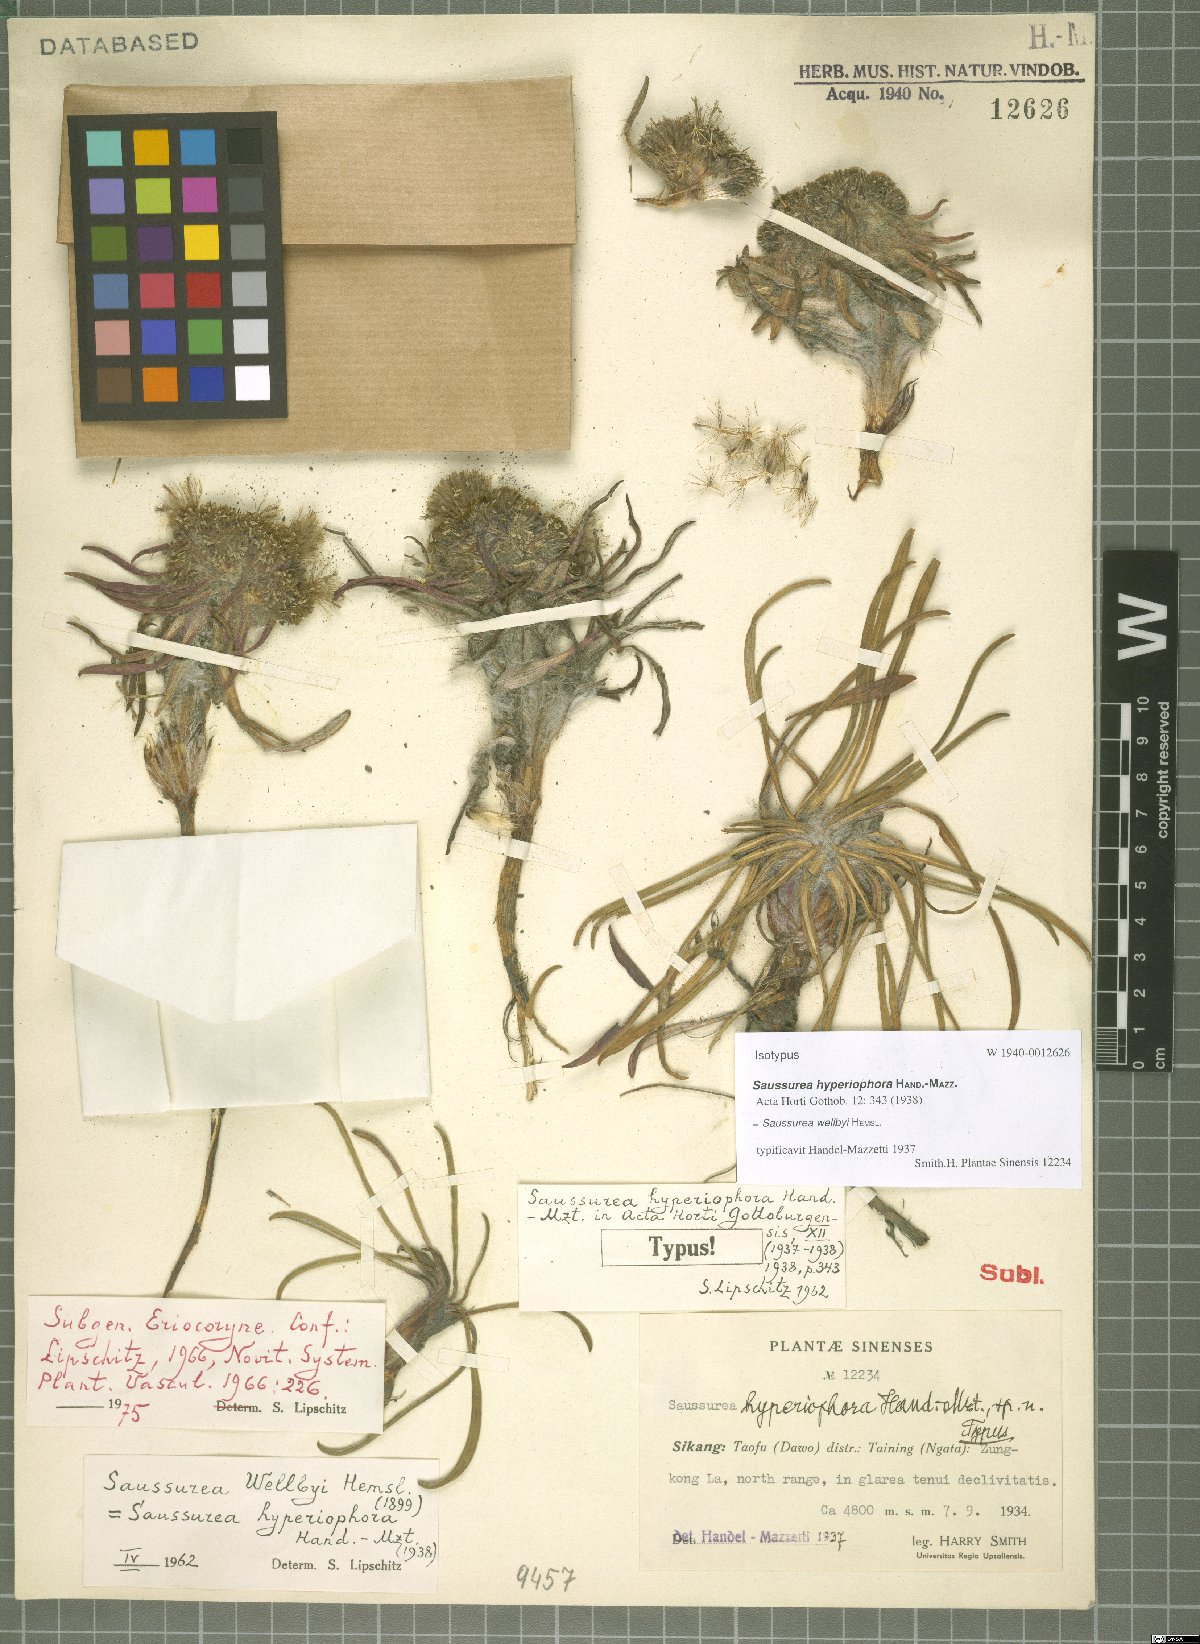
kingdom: Plantae
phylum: Tracheophyta
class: Magnoliopsida
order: Asterales
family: Asteraceae
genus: Saussurea
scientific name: Saussurea wellbyi
